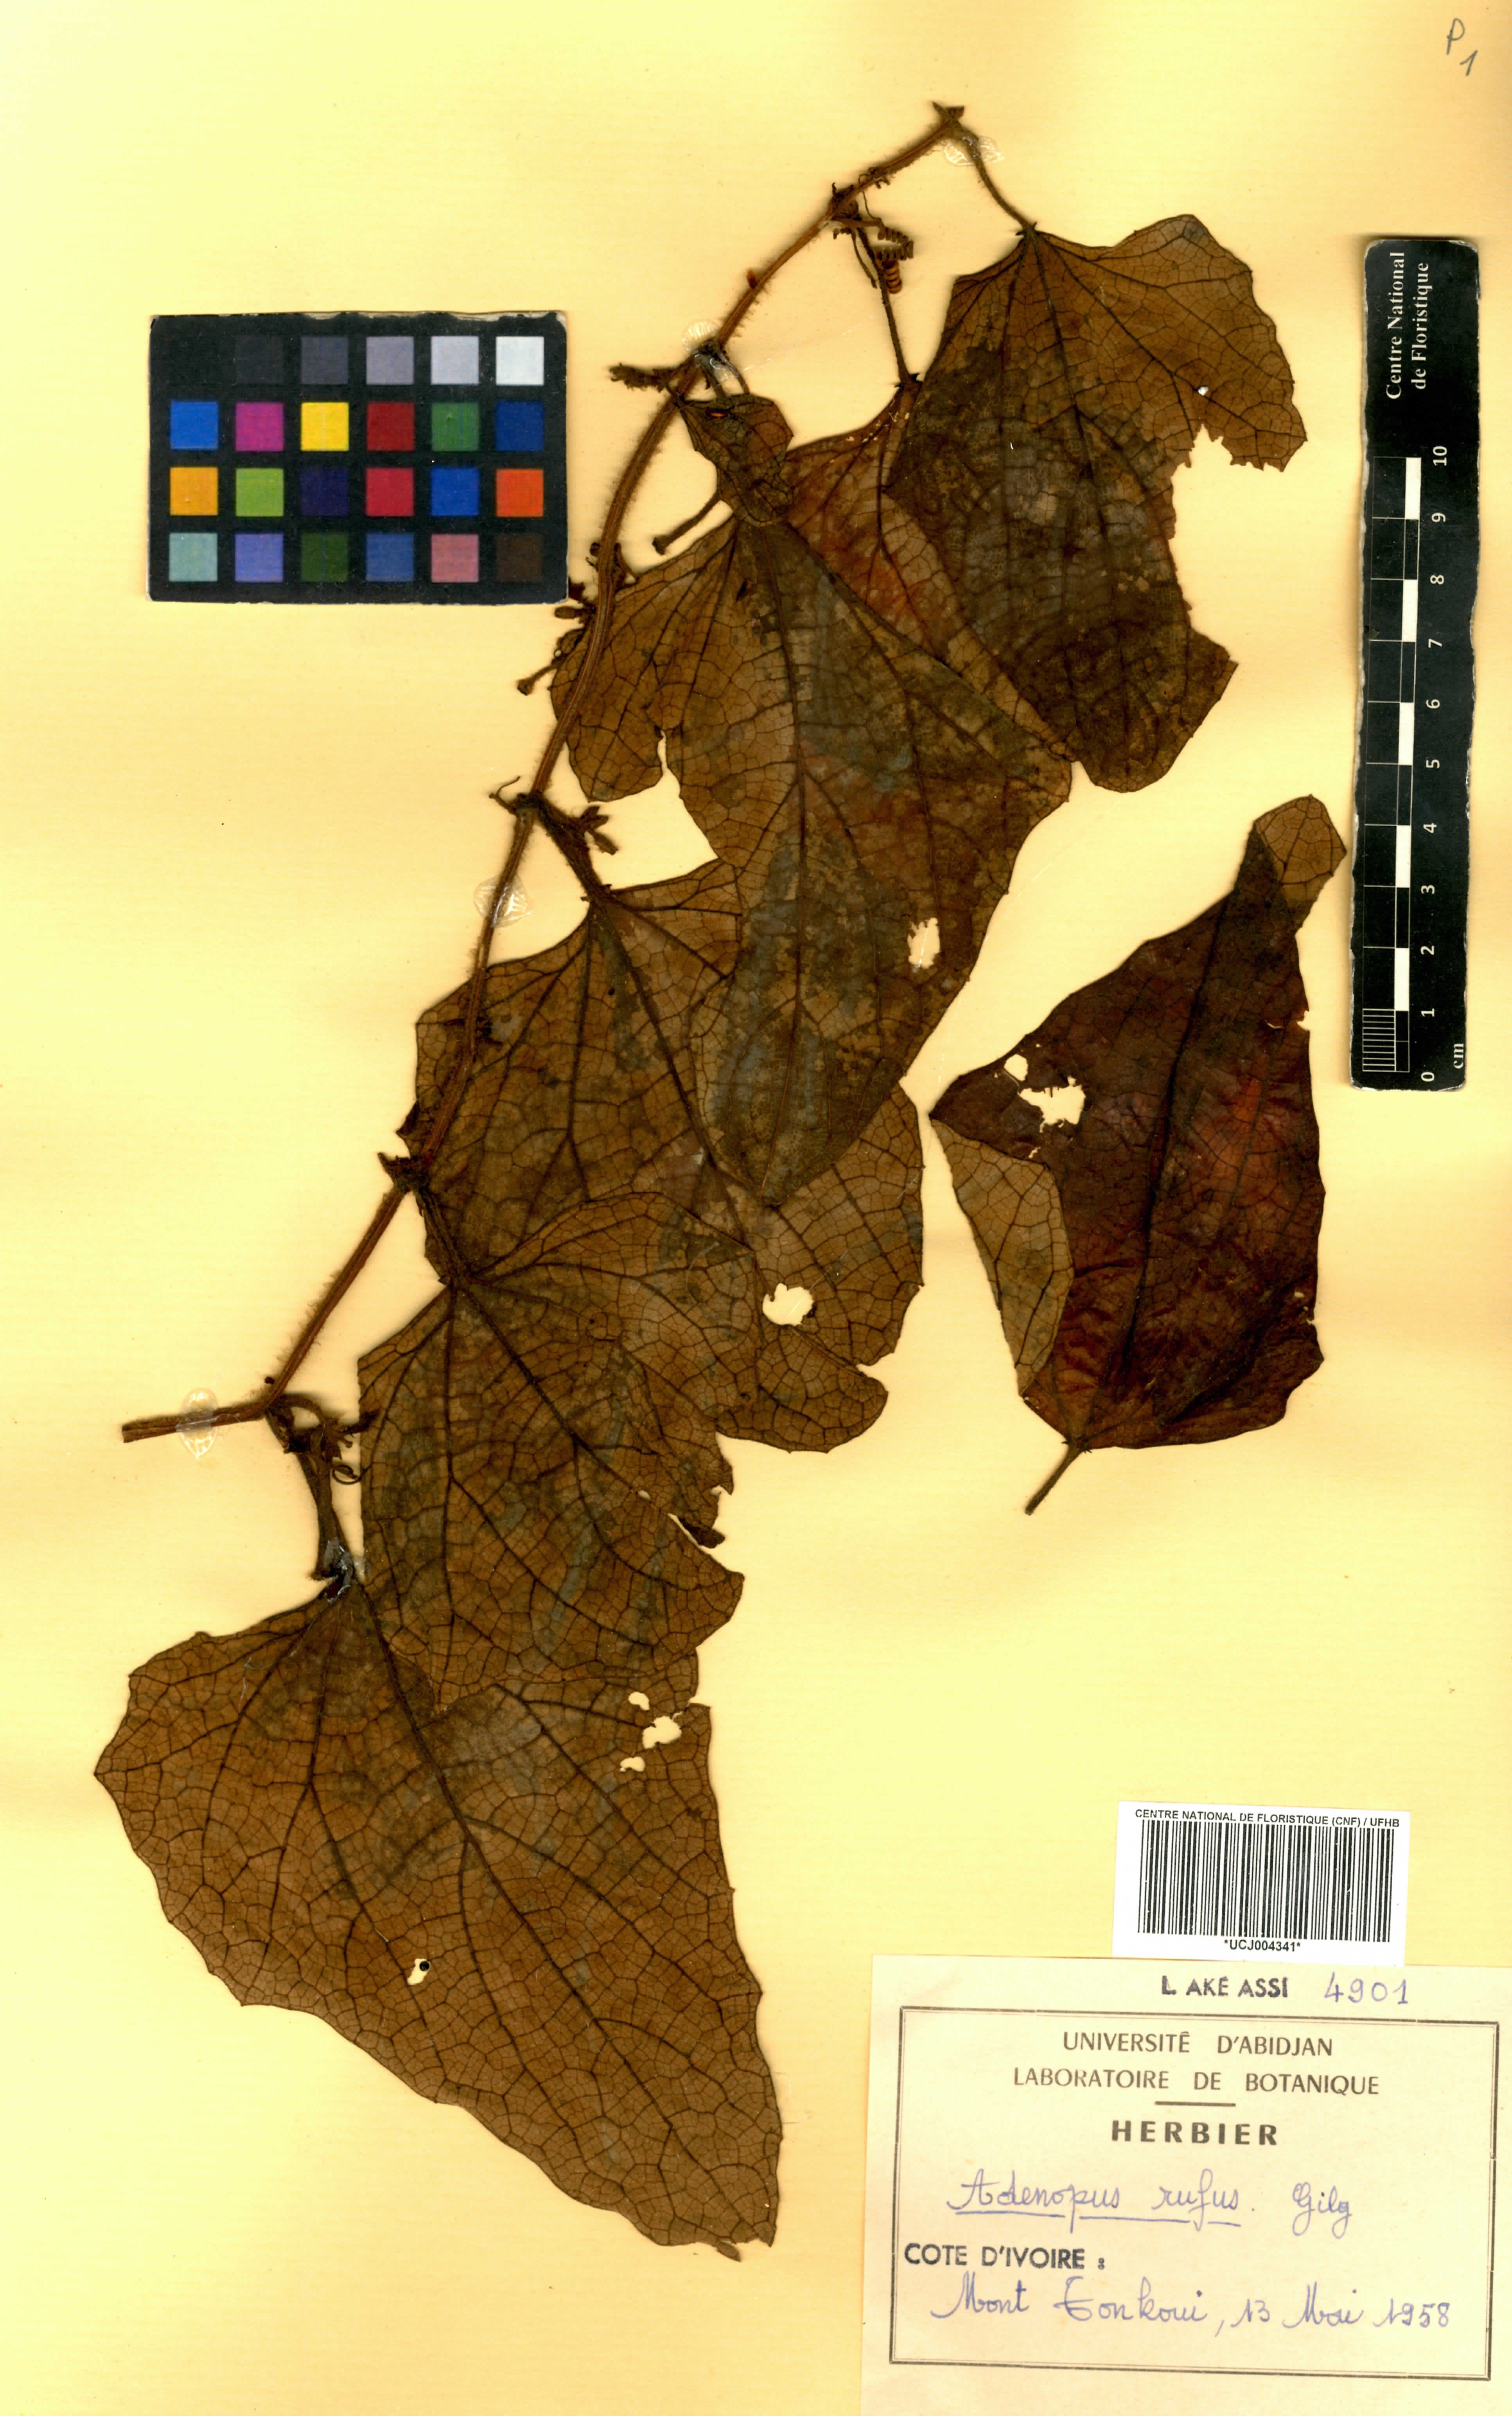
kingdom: Plantae
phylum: Tracheophyta
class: Magnoliopsida
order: Cucurbitales
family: Cucurbitaceae
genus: Lagenaria
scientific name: Lagenaria rufa
